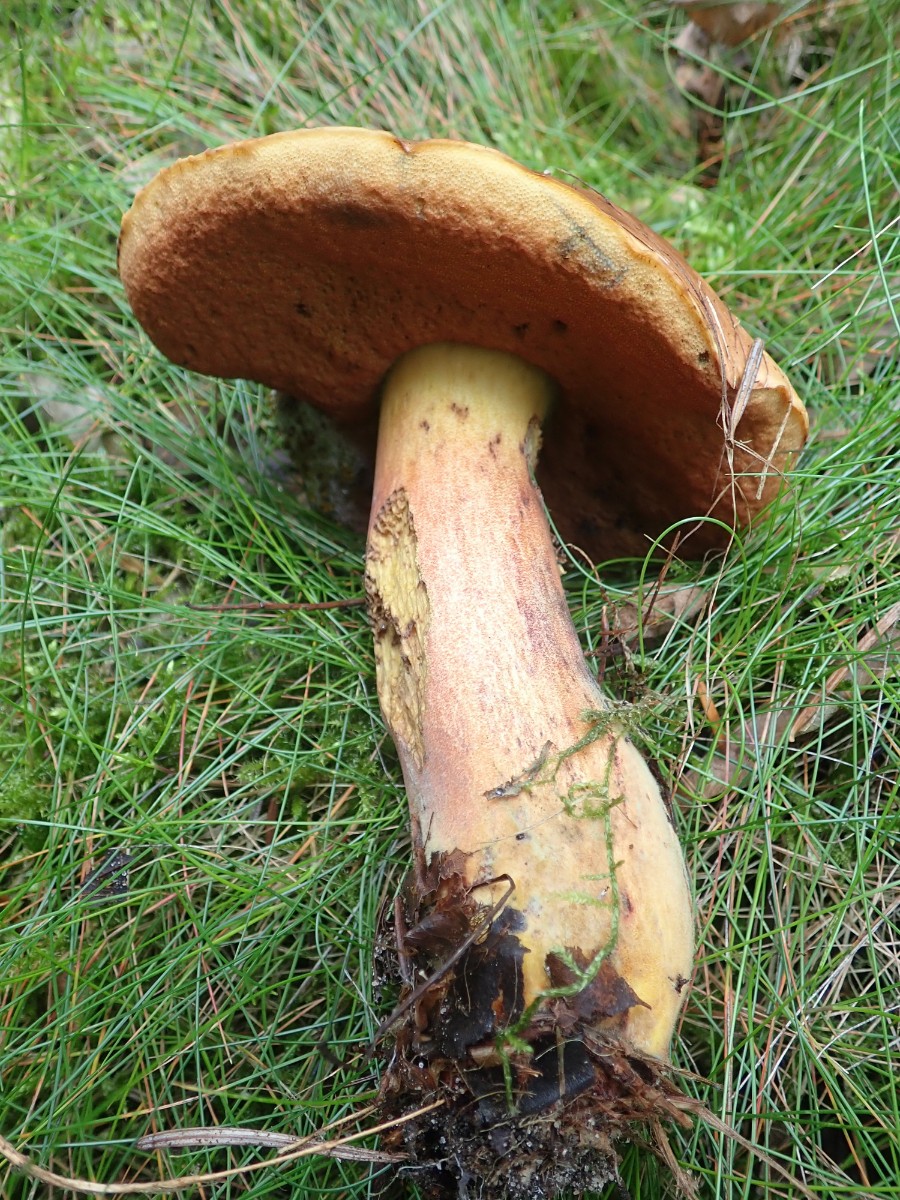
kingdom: Fungi
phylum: Basidiomycota
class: Agaricomycetes
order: Boletales
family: Boletaceae
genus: Neoboletus
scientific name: Neoboletus erythropus
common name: punktstokket indigorørhat
